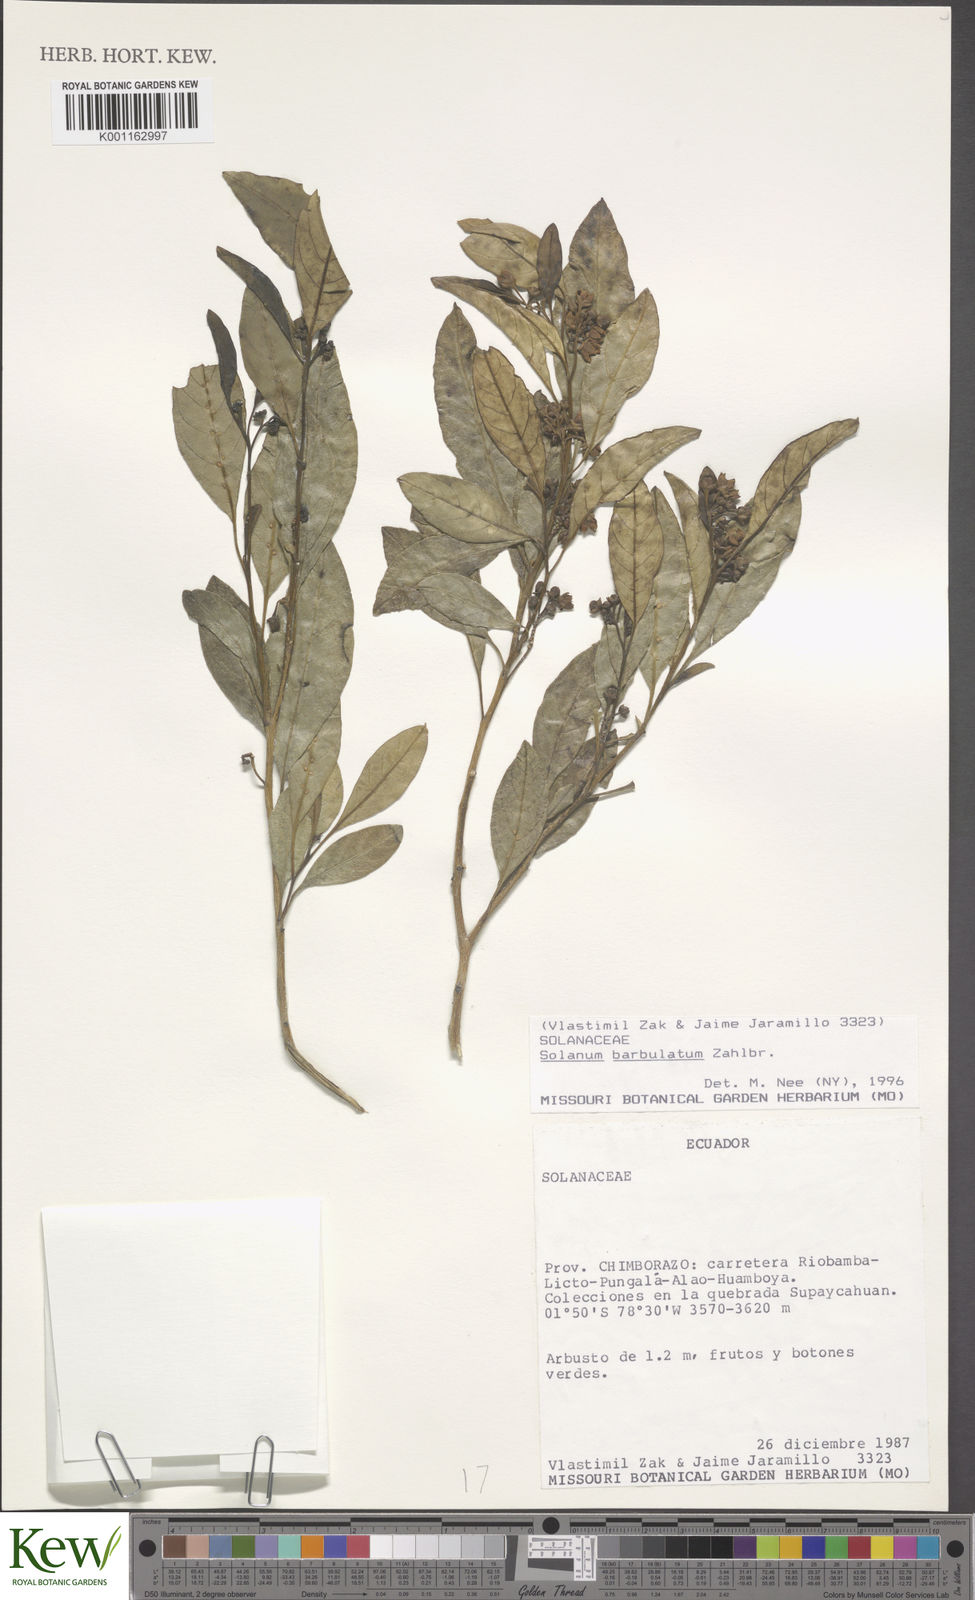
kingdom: Plantae
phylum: Tracheophyta
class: Magnoliopsida
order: Solanales
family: Solanaceae
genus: Solanum
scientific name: Solanum barbulatum
